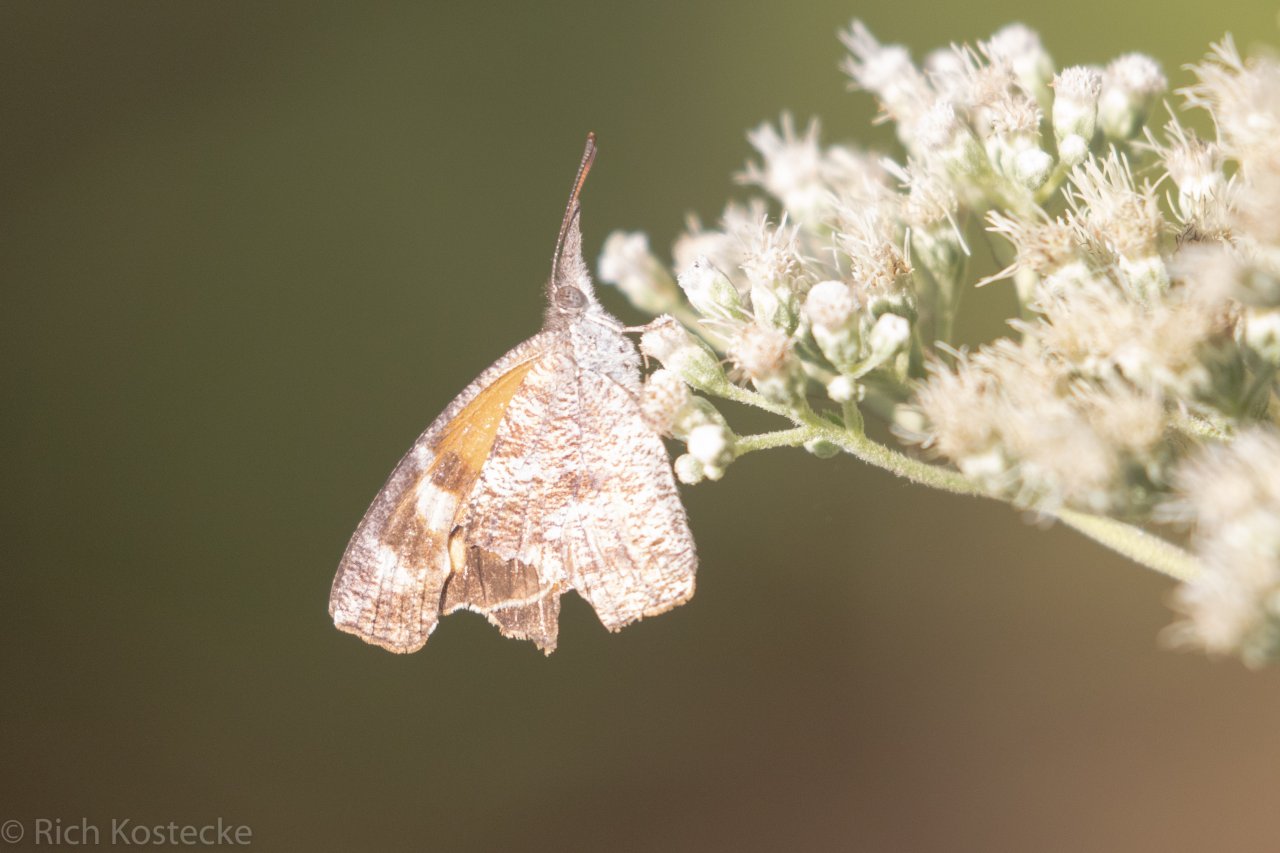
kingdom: Animalia
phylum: Arthropoda
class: Insecta
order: Lepidoptera
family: Nymphalidae
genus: Libytheana
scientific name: Libytheana carinenta
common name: American Snout
